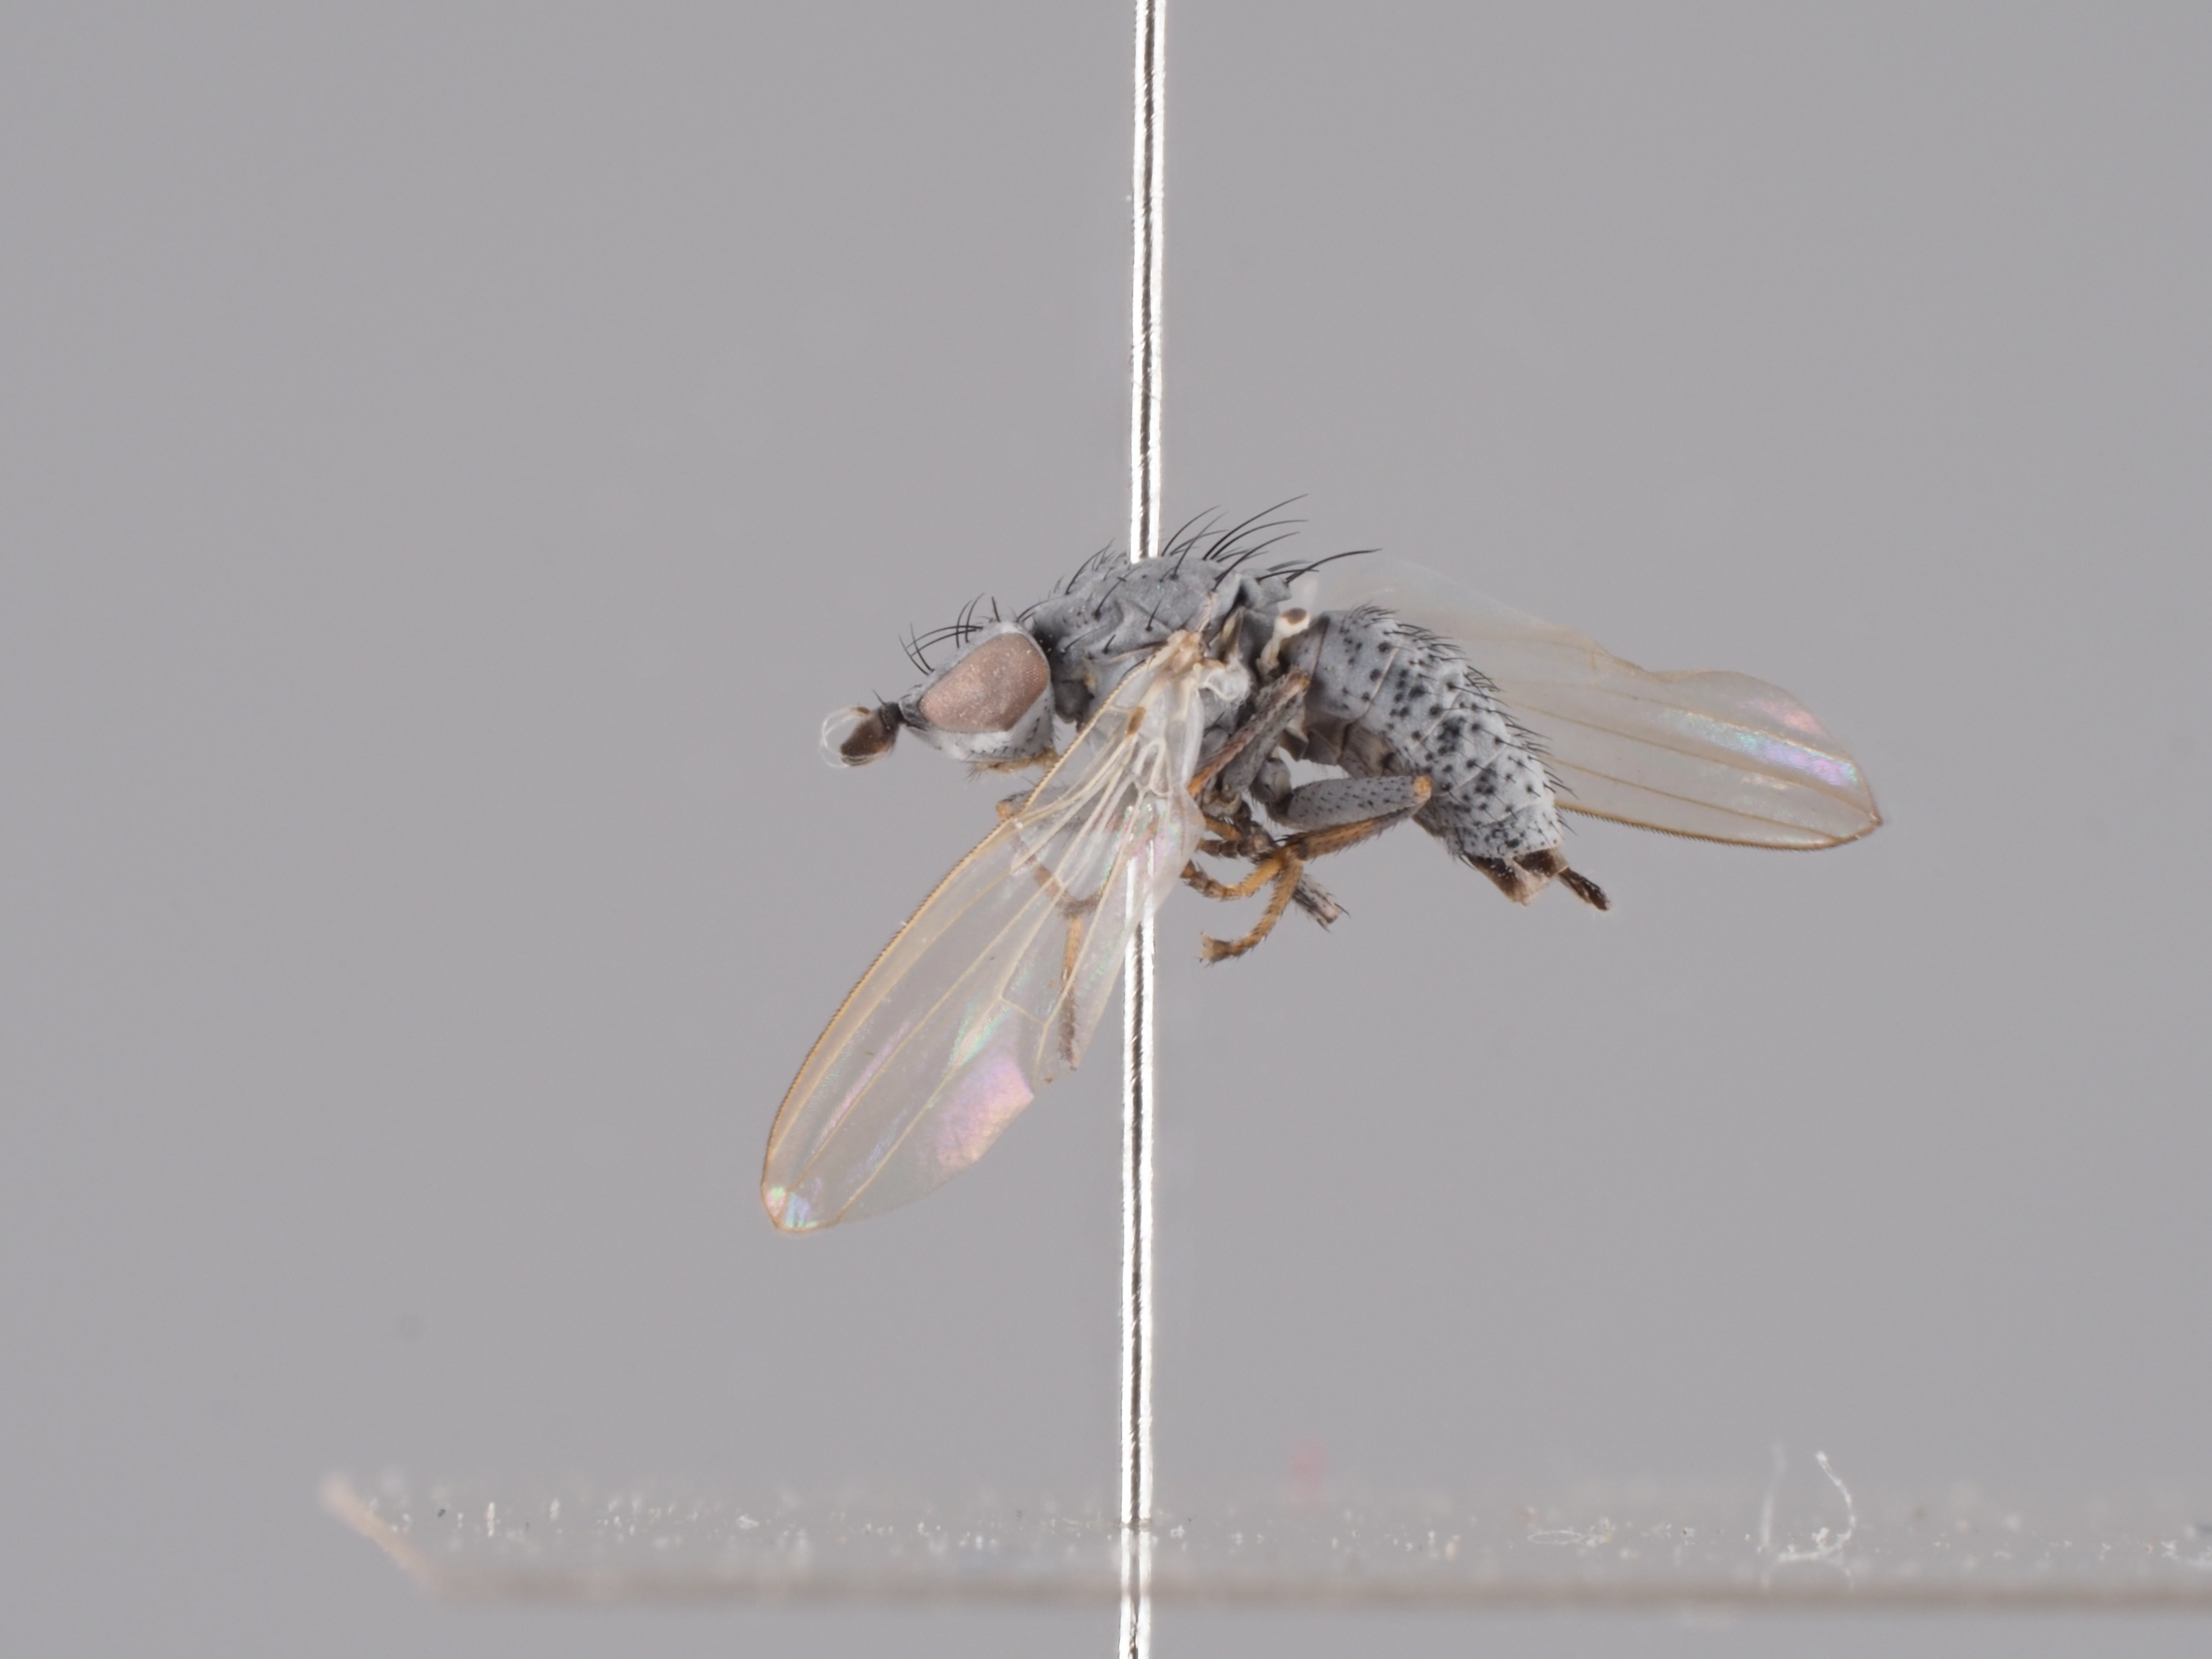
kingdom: Animalia
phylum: Arthropoda
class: Insecta
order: Diptera
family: Chamaemyiidae
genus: Acrometopia
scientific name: Acrometopia wahlbergi
